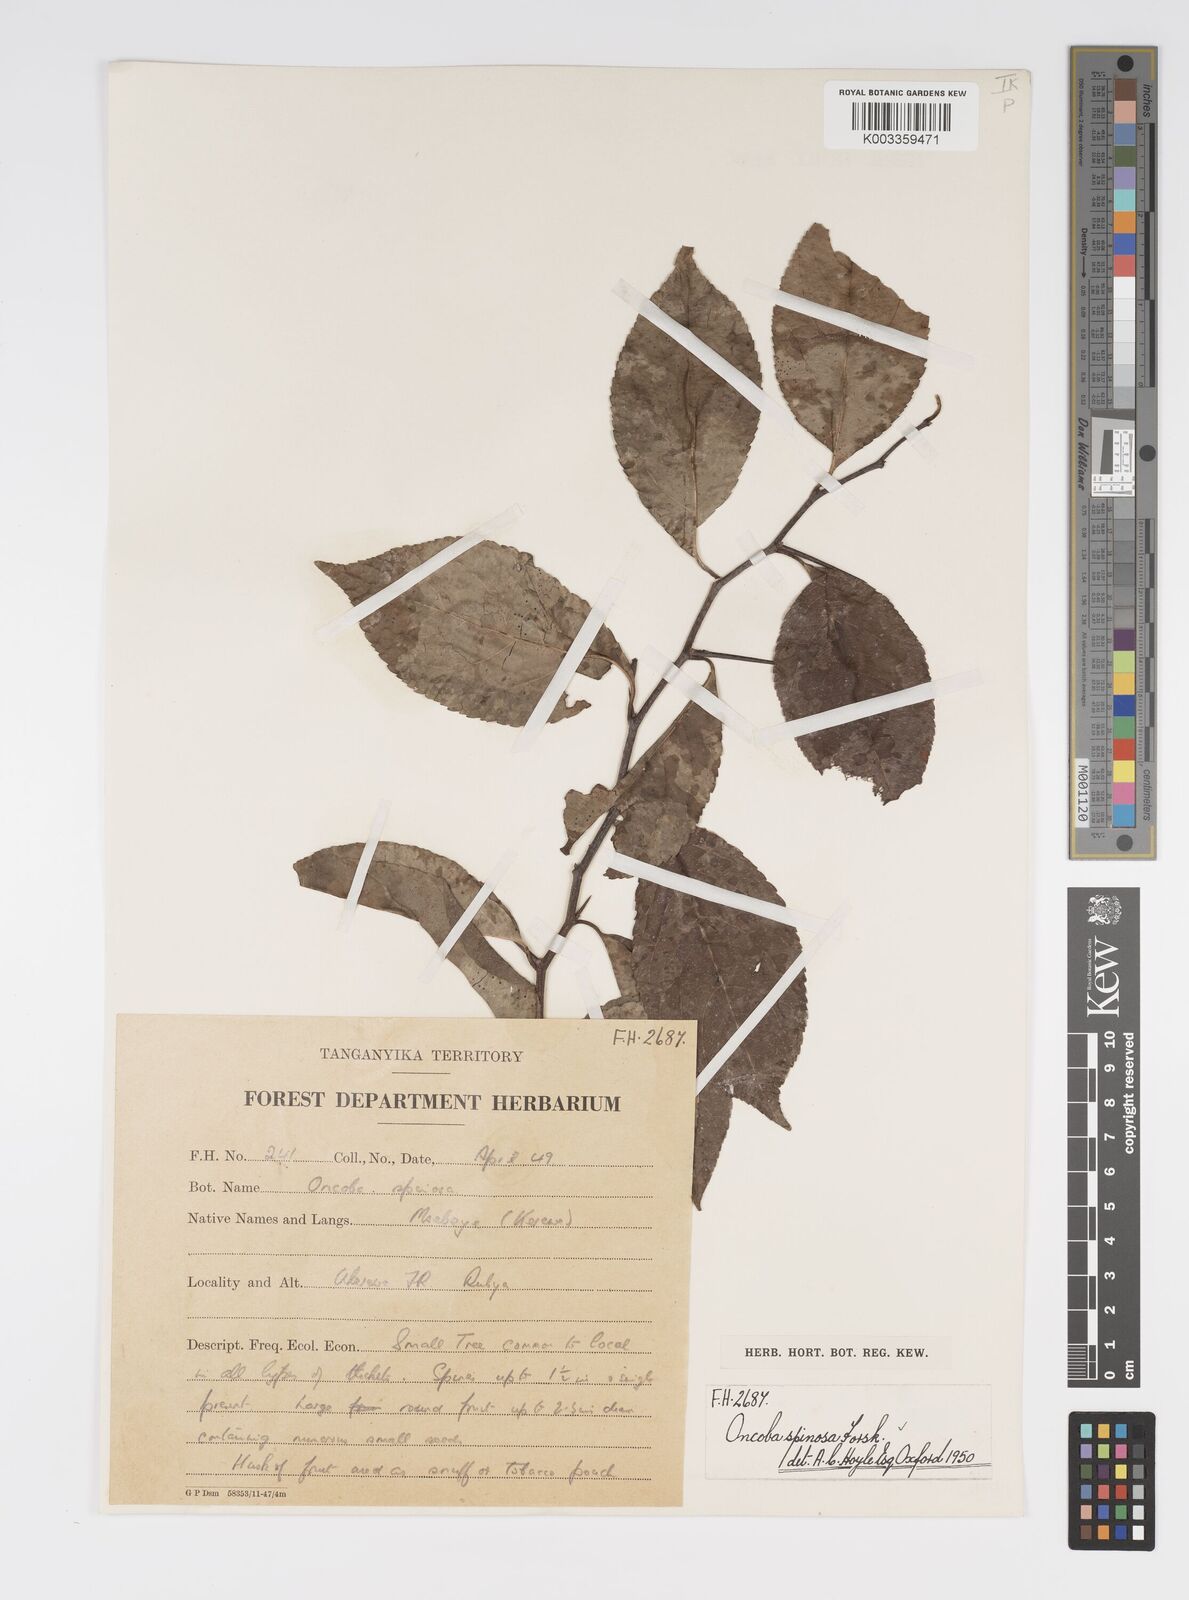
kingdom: Plantae
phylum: Tracheophyta
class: Magnoliopsida
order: Malpighiales
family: Salicaceae
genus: Oncoba
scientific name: Oncoba spinosa
